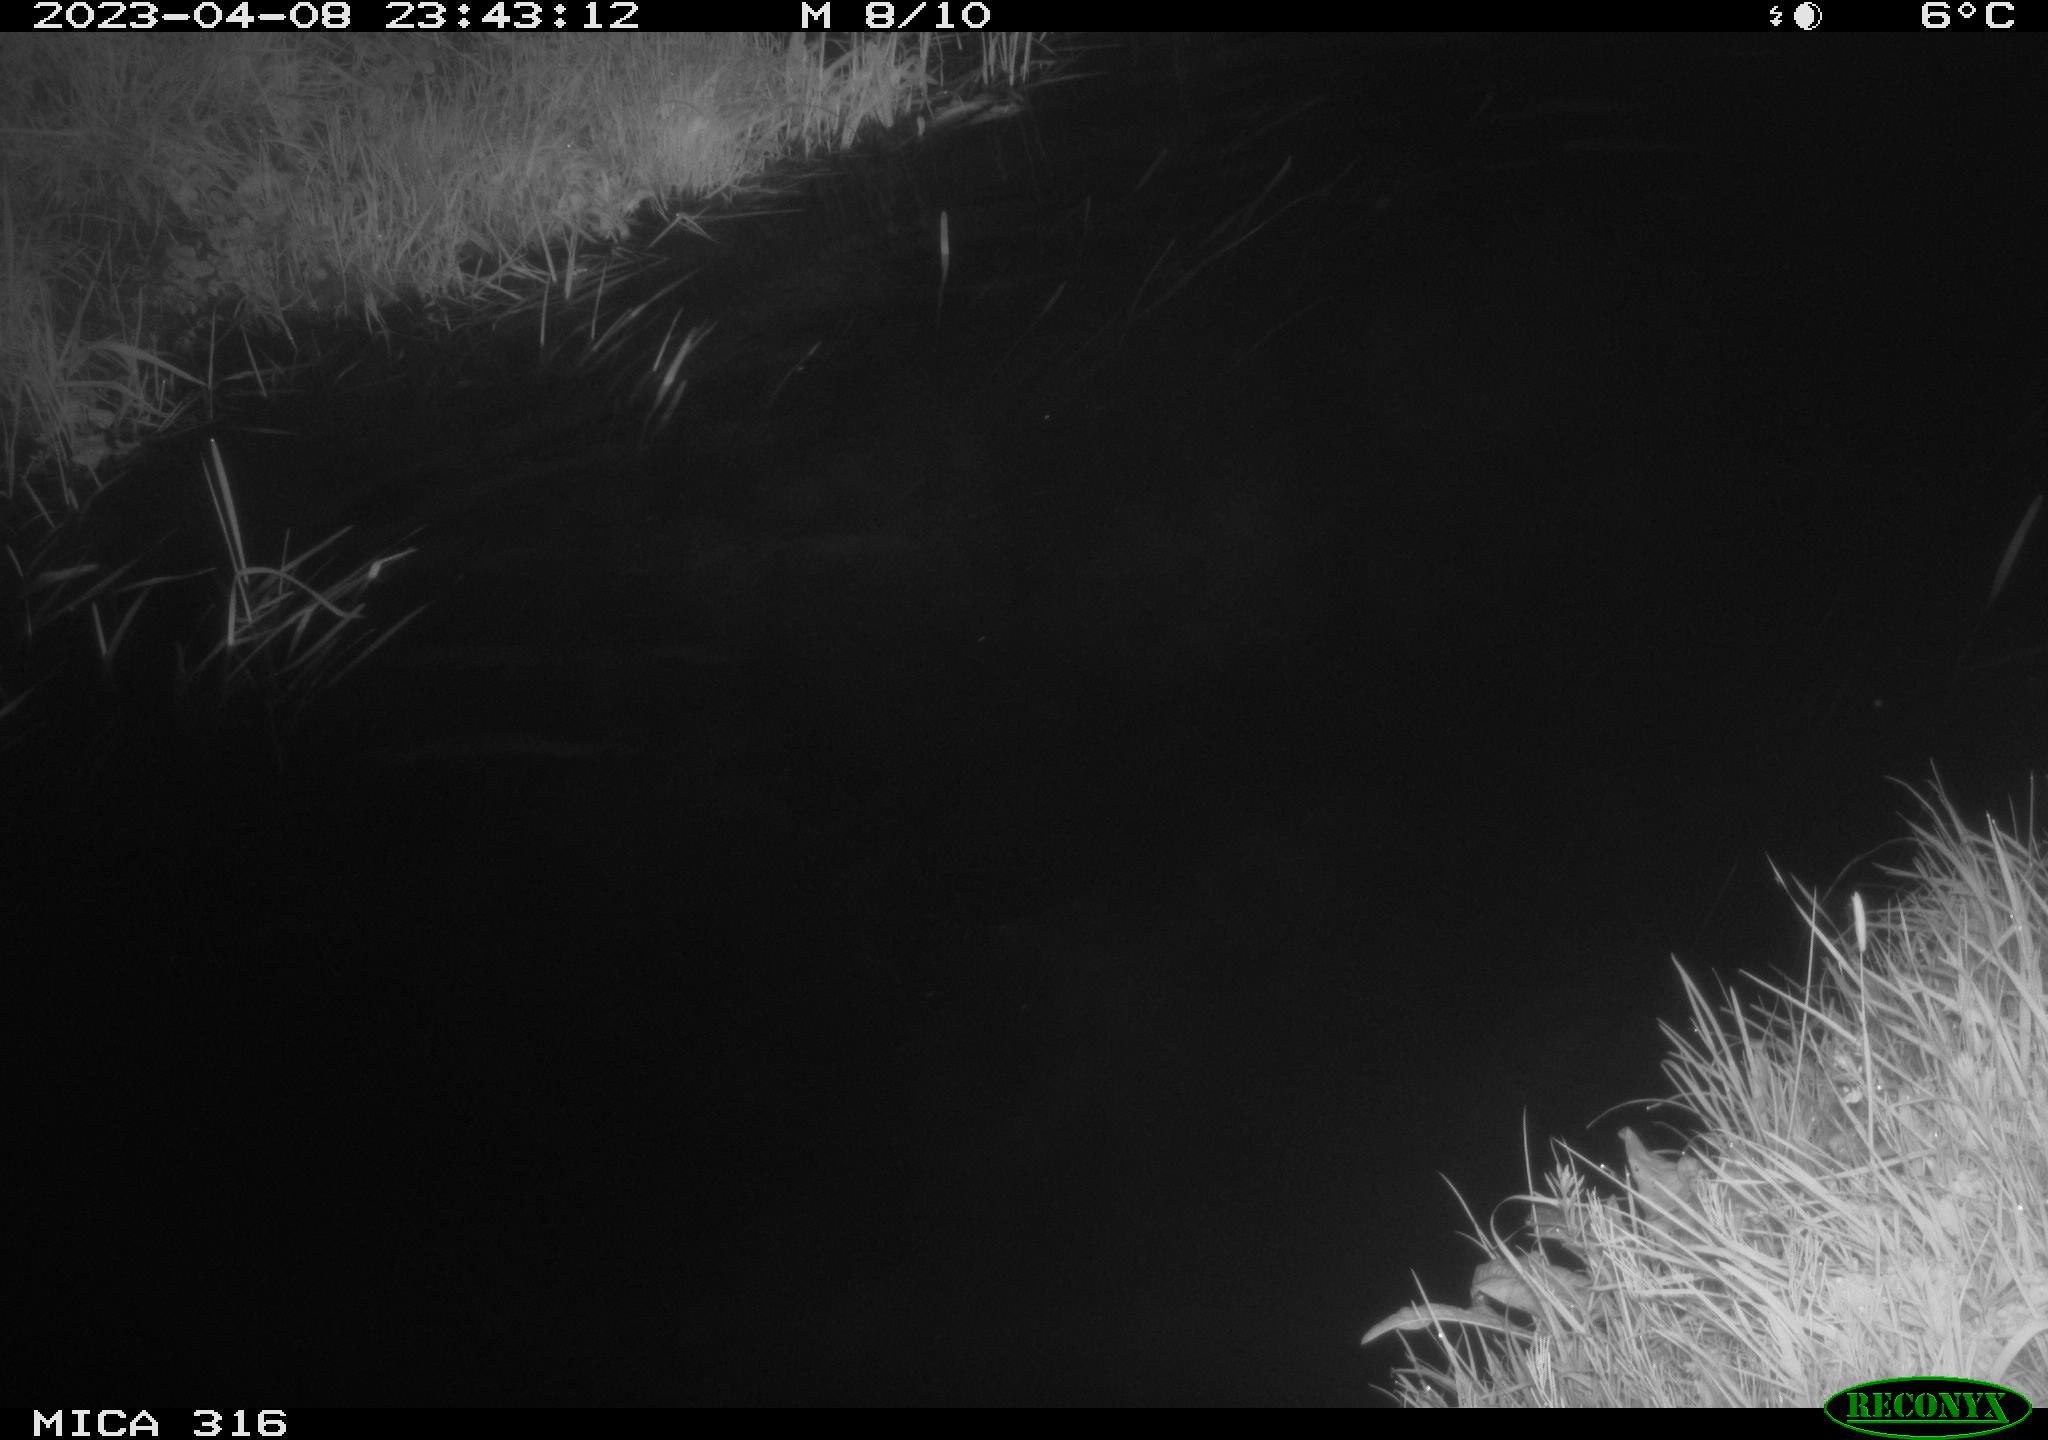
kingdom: Animalia
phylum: Chordata
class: Aves
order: Anseriformes
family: Anatidae
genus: Anas
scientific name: Anas
